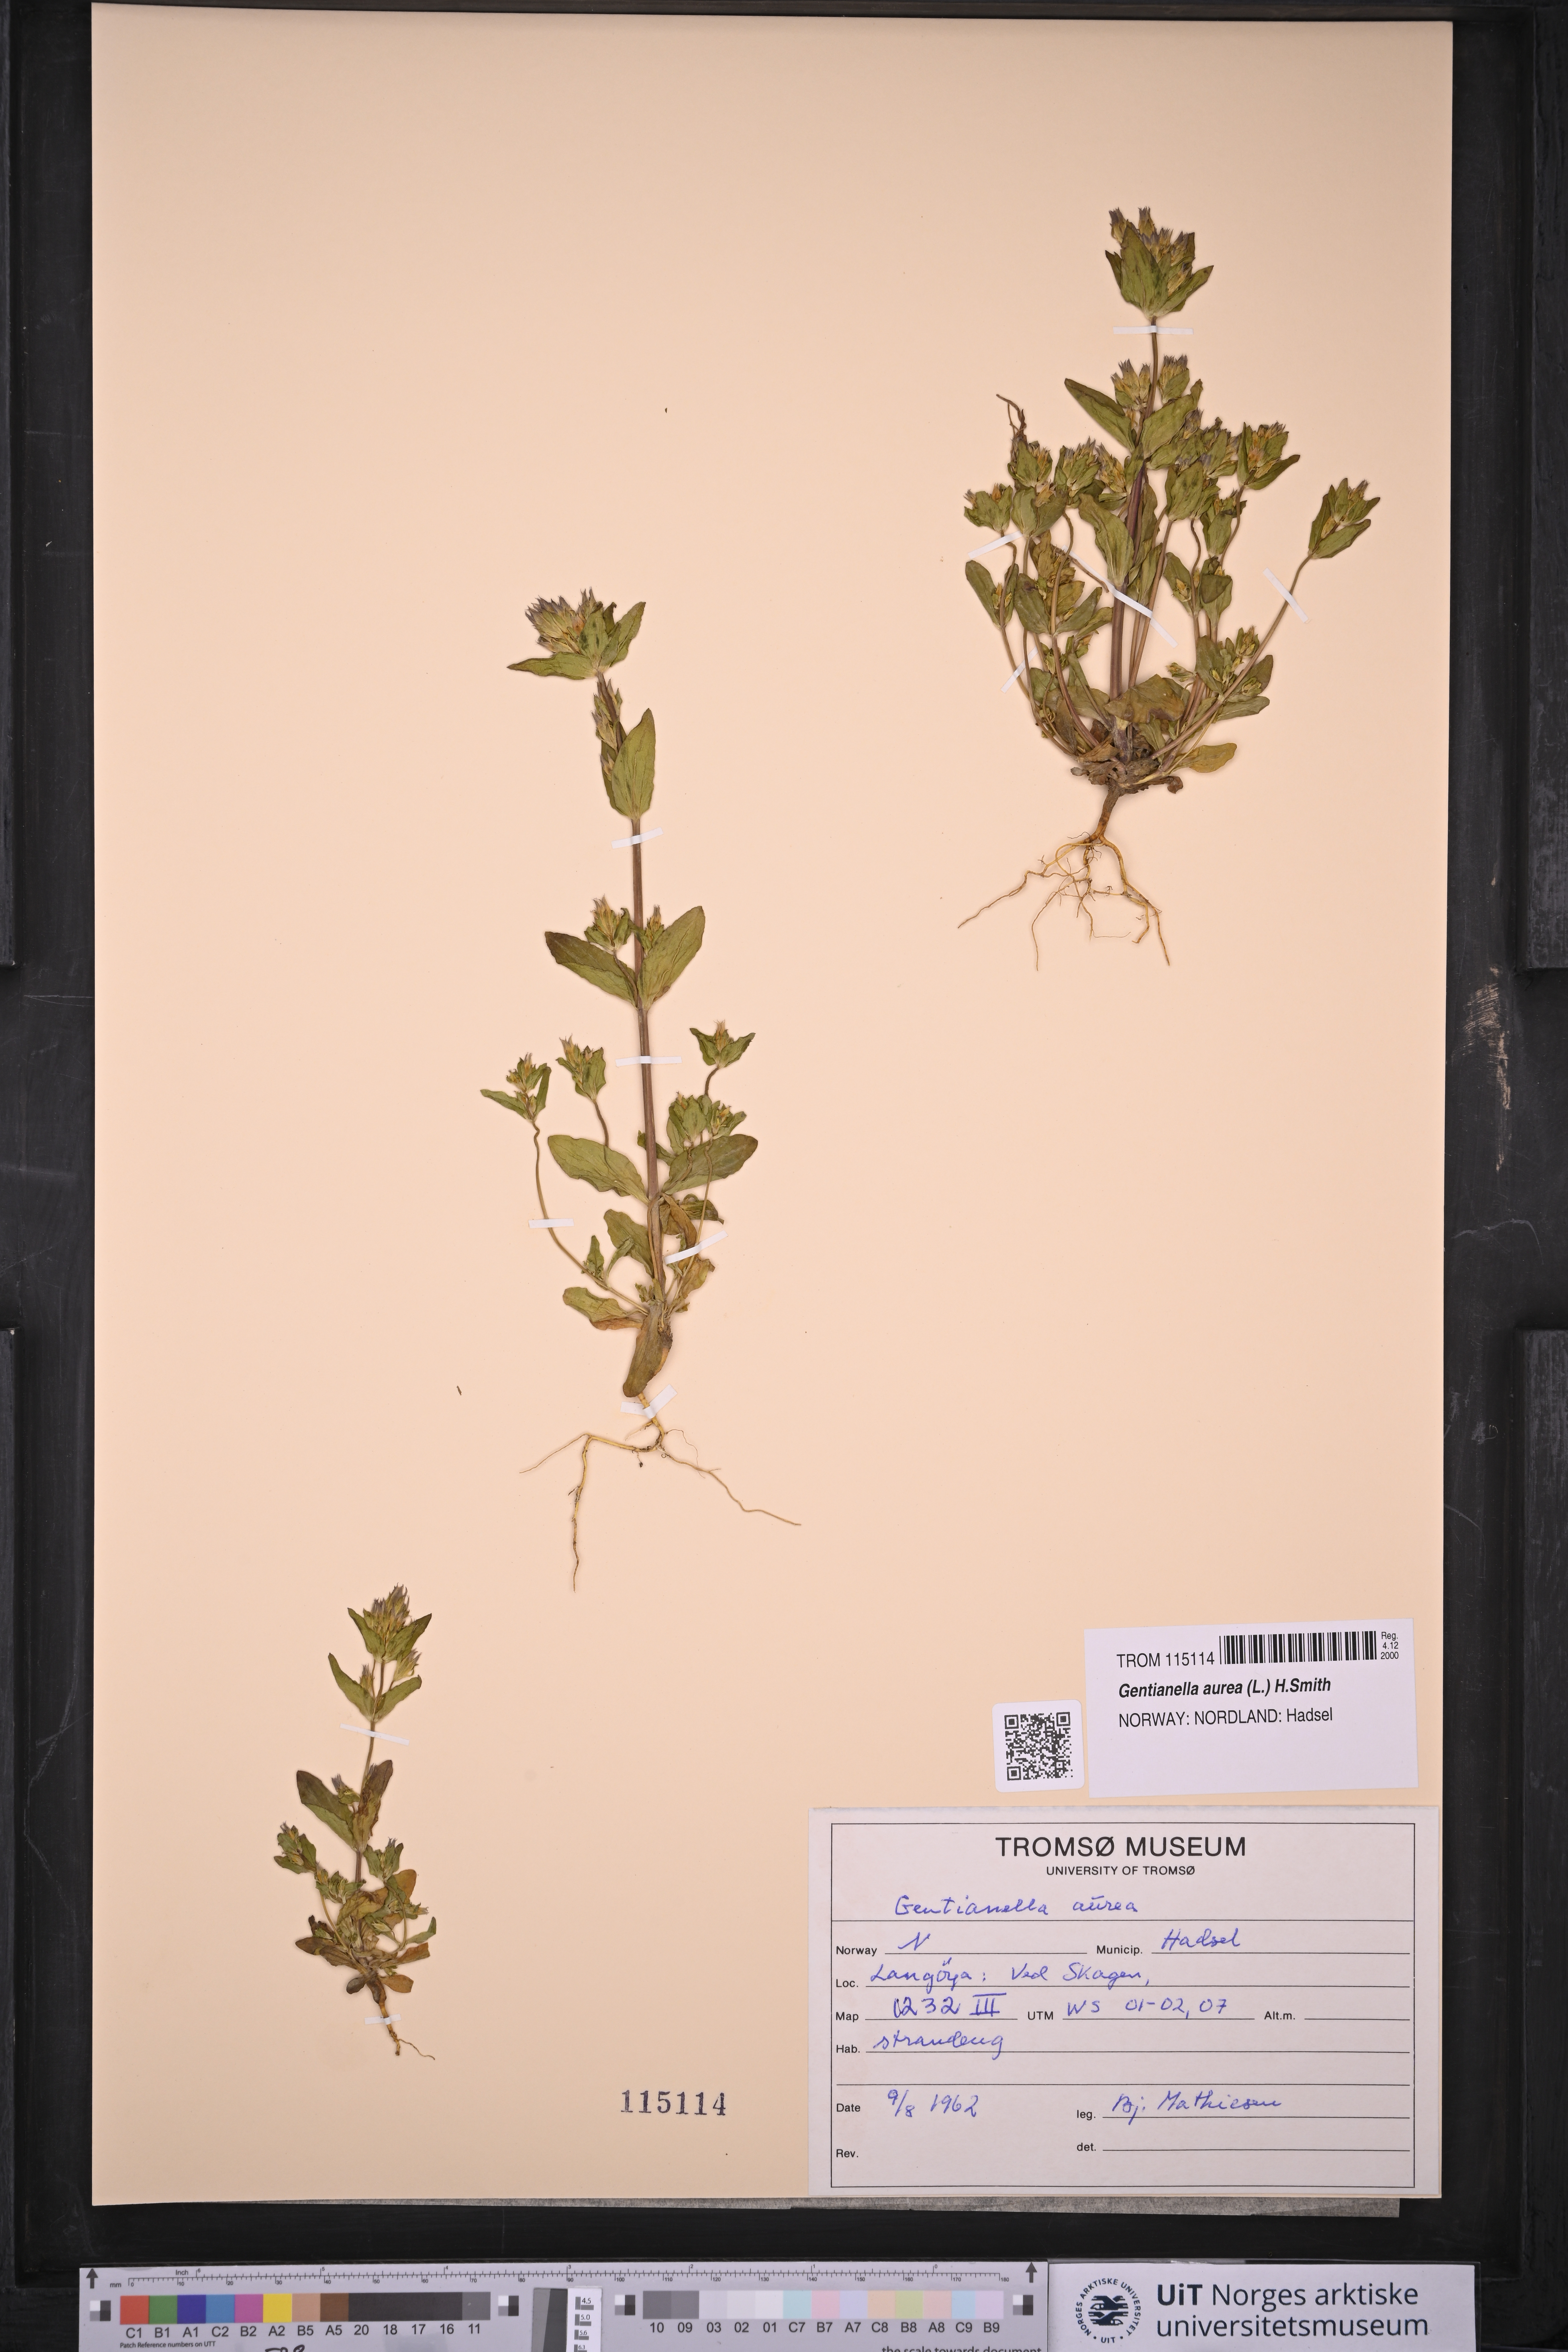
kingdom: Plantae
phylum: Tracheophyta
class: Magnoliopsida
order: Gentianales
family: Gentianaceae
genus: Gentianella
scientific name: Gentianella aurea
